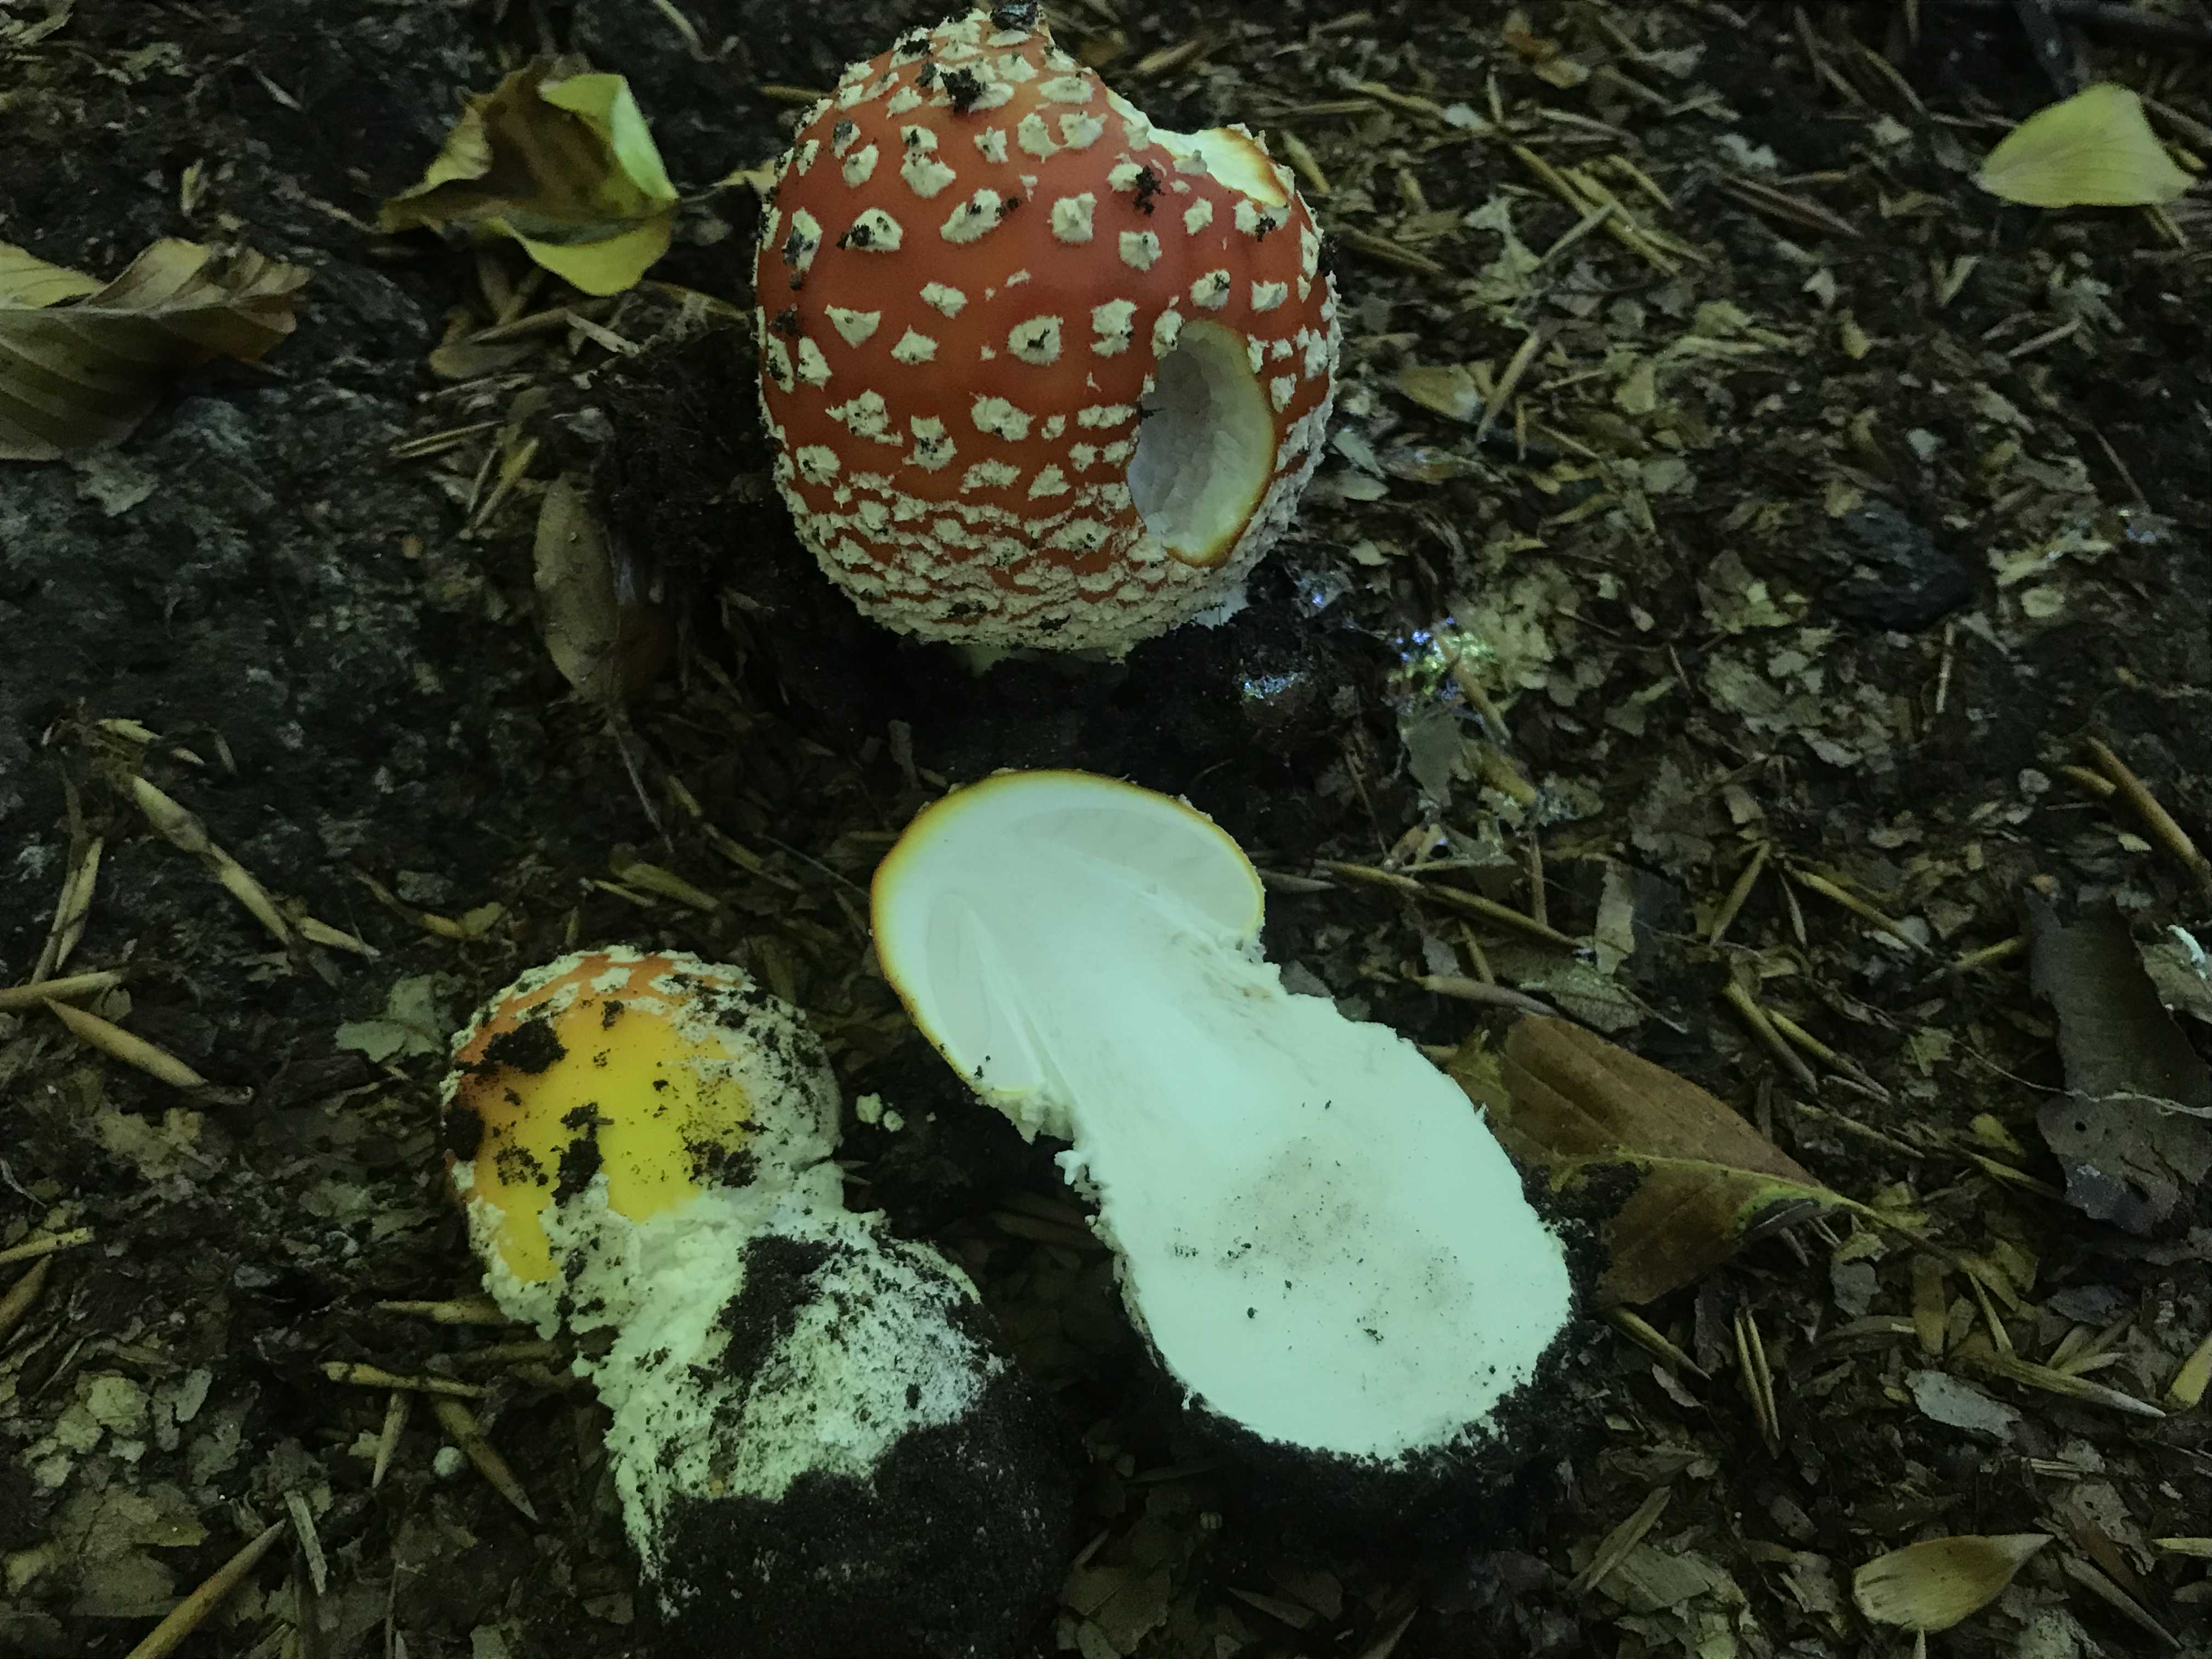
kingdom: Fungi
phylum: Basidiomycota
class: Agaricomycetes
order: Agaricales
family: Amanitaceae
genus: Amanita
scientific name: Amanita muscaria
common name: rød fluesvamp
